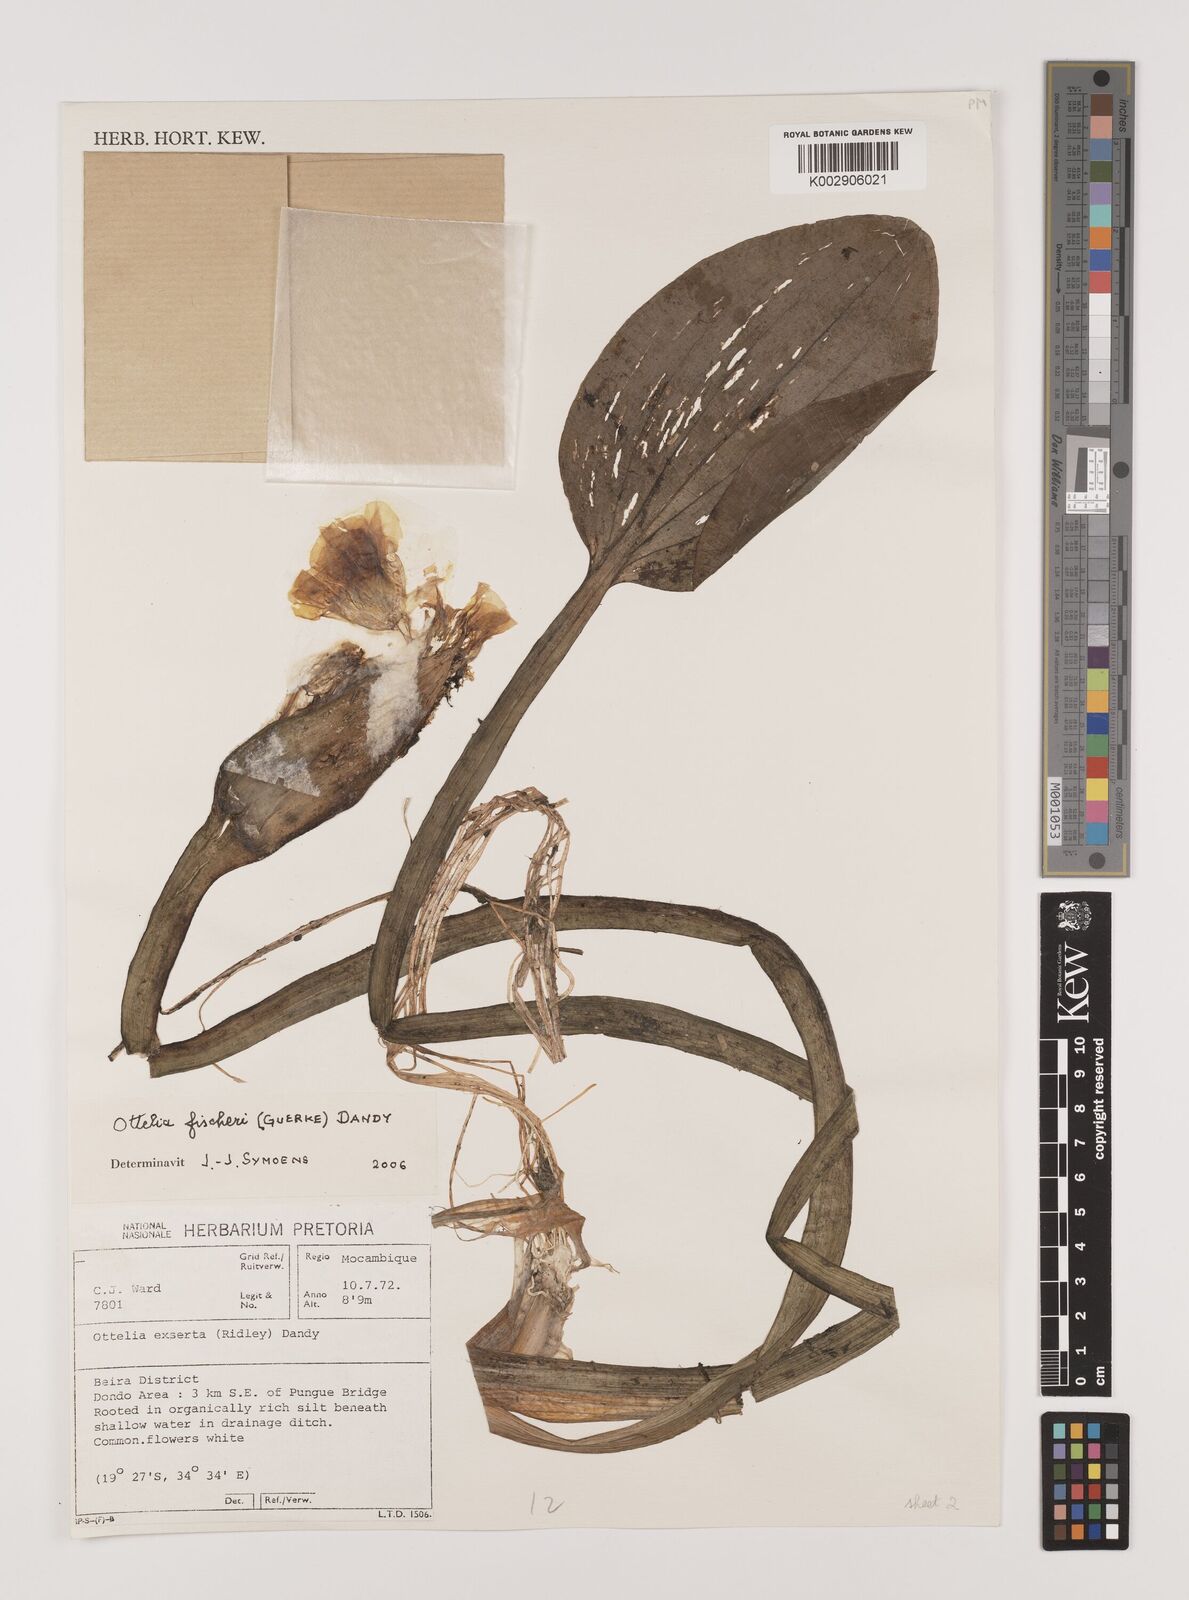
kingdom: Plantae
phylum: Tracheophyta
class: Liliopsida
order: Alismatales
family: Hydrocharitaceae
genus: Ottelia
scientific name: Ottelia fischeri
